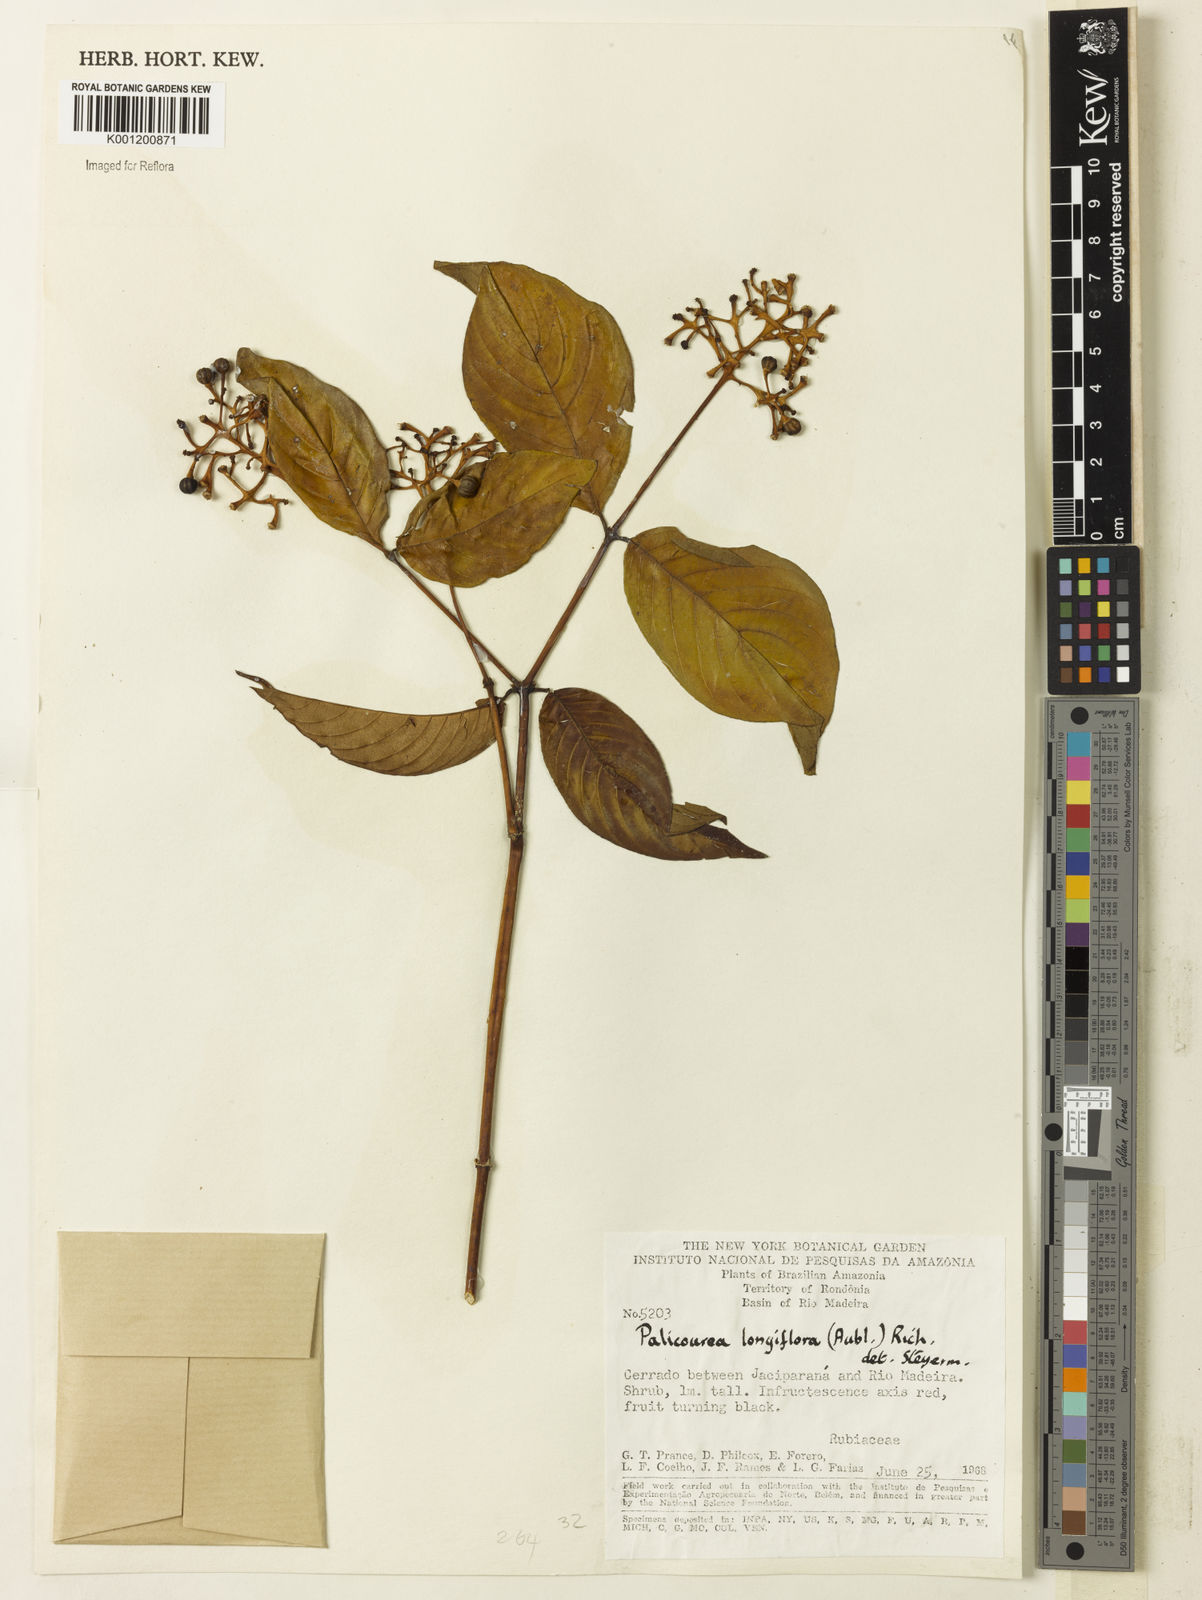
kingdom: Plantae
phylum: Tracheophyta
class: Magnoliopsida
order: Gentianales
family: Rubiaceae
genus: Palicourea
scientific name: Palicourea longiflora
